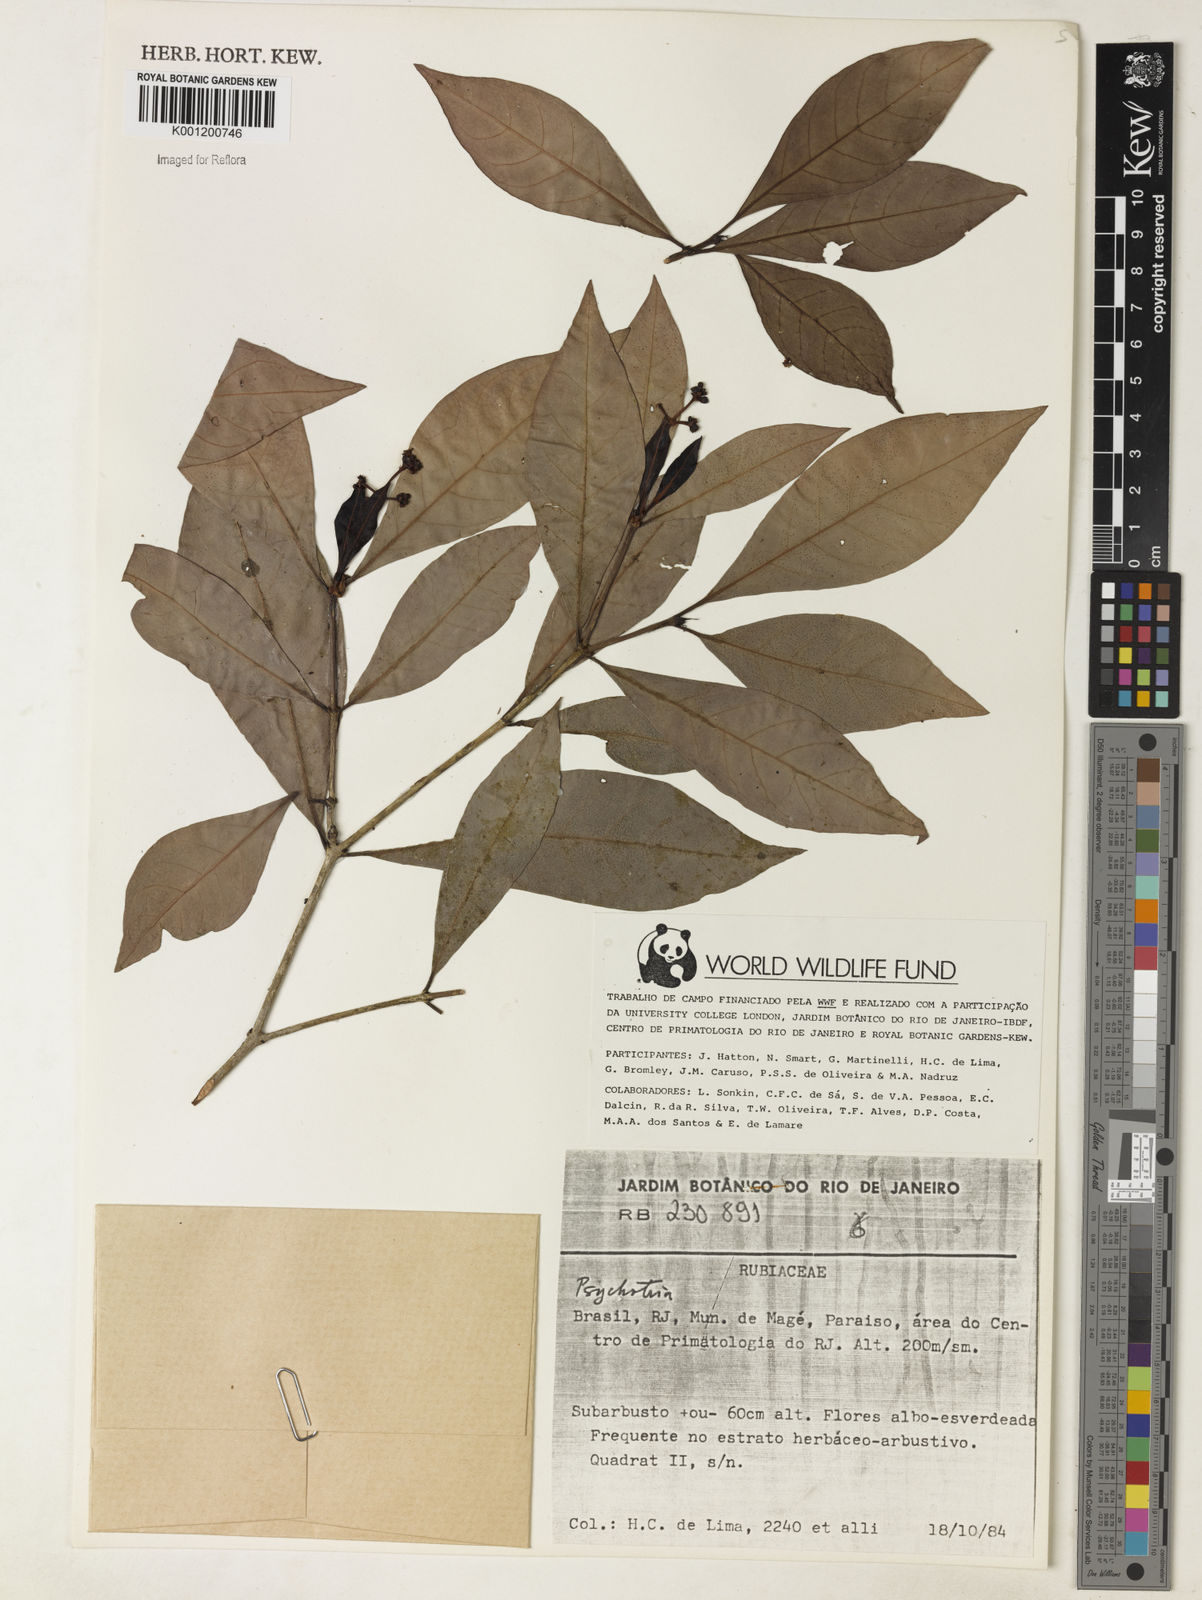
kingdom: Plantae
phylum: Tracheophyta
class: Magnoliopsida
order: Gentianales
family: Rubiaceae
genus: Psychotria
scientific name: Psychotria
